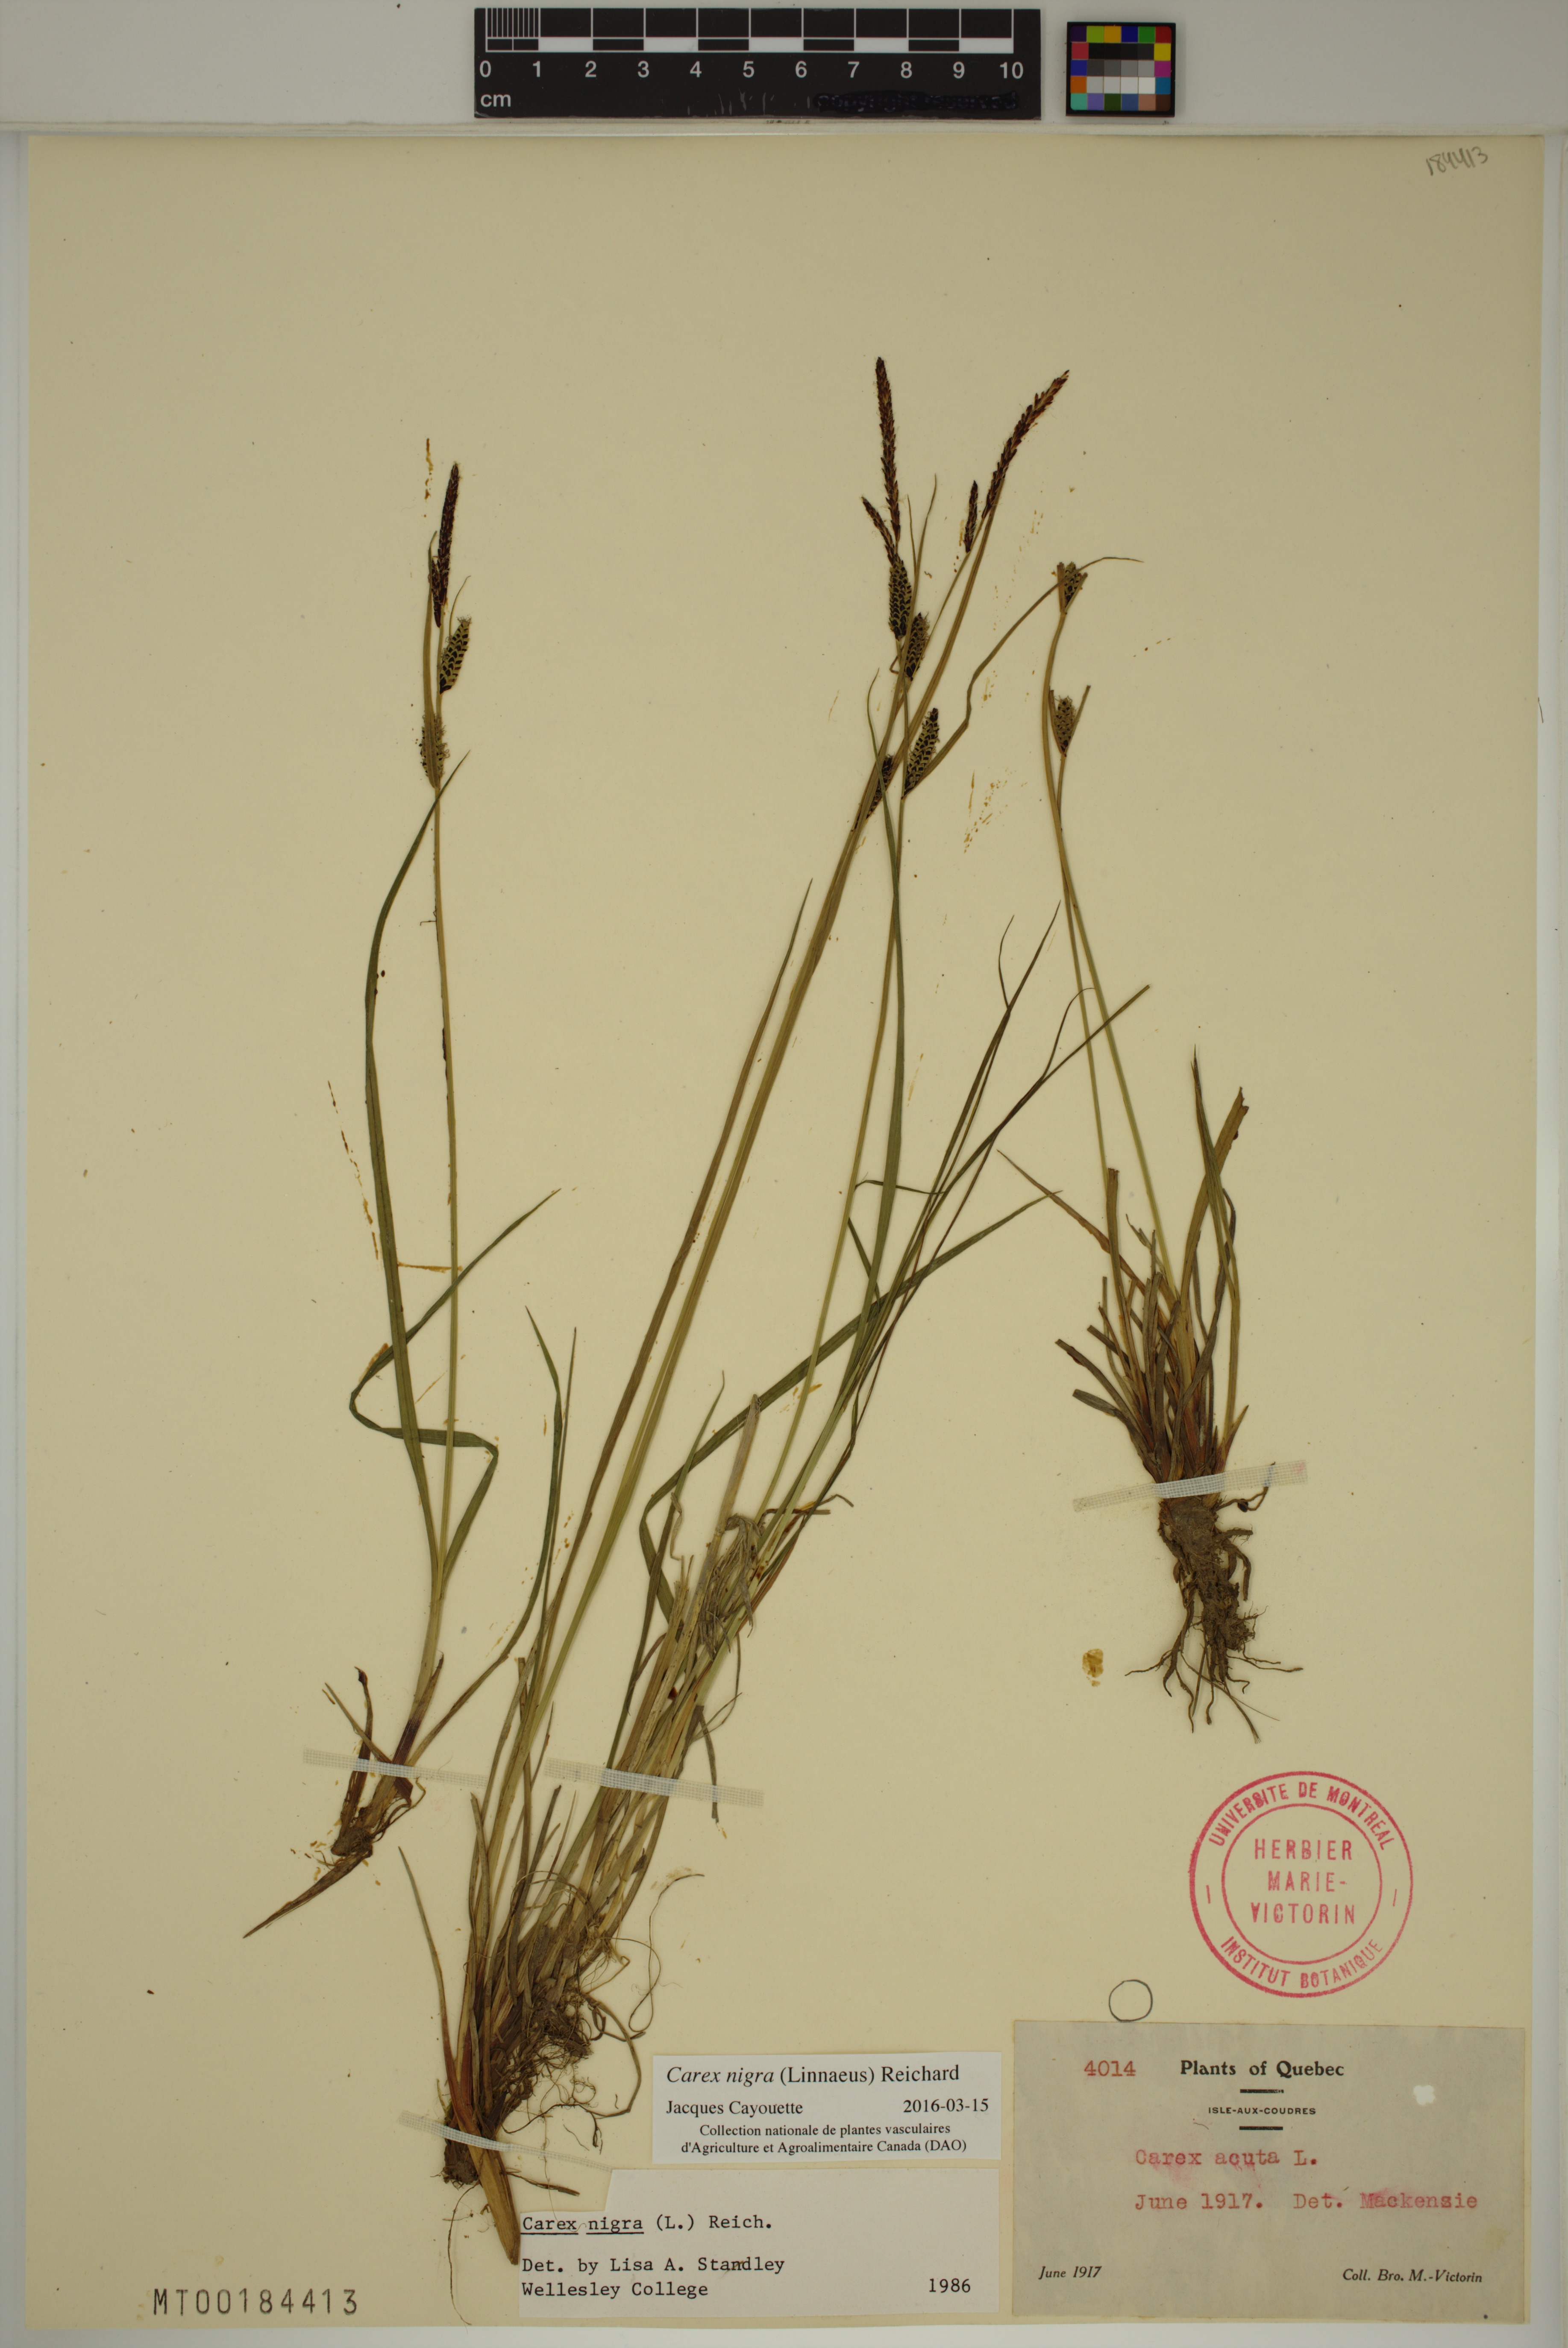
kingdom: Plantae
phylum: Tracheophyta
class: Liliopsida
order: Poales
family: Cyperaceae
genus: Carex
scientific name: Carex nigra
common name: Common sedge
